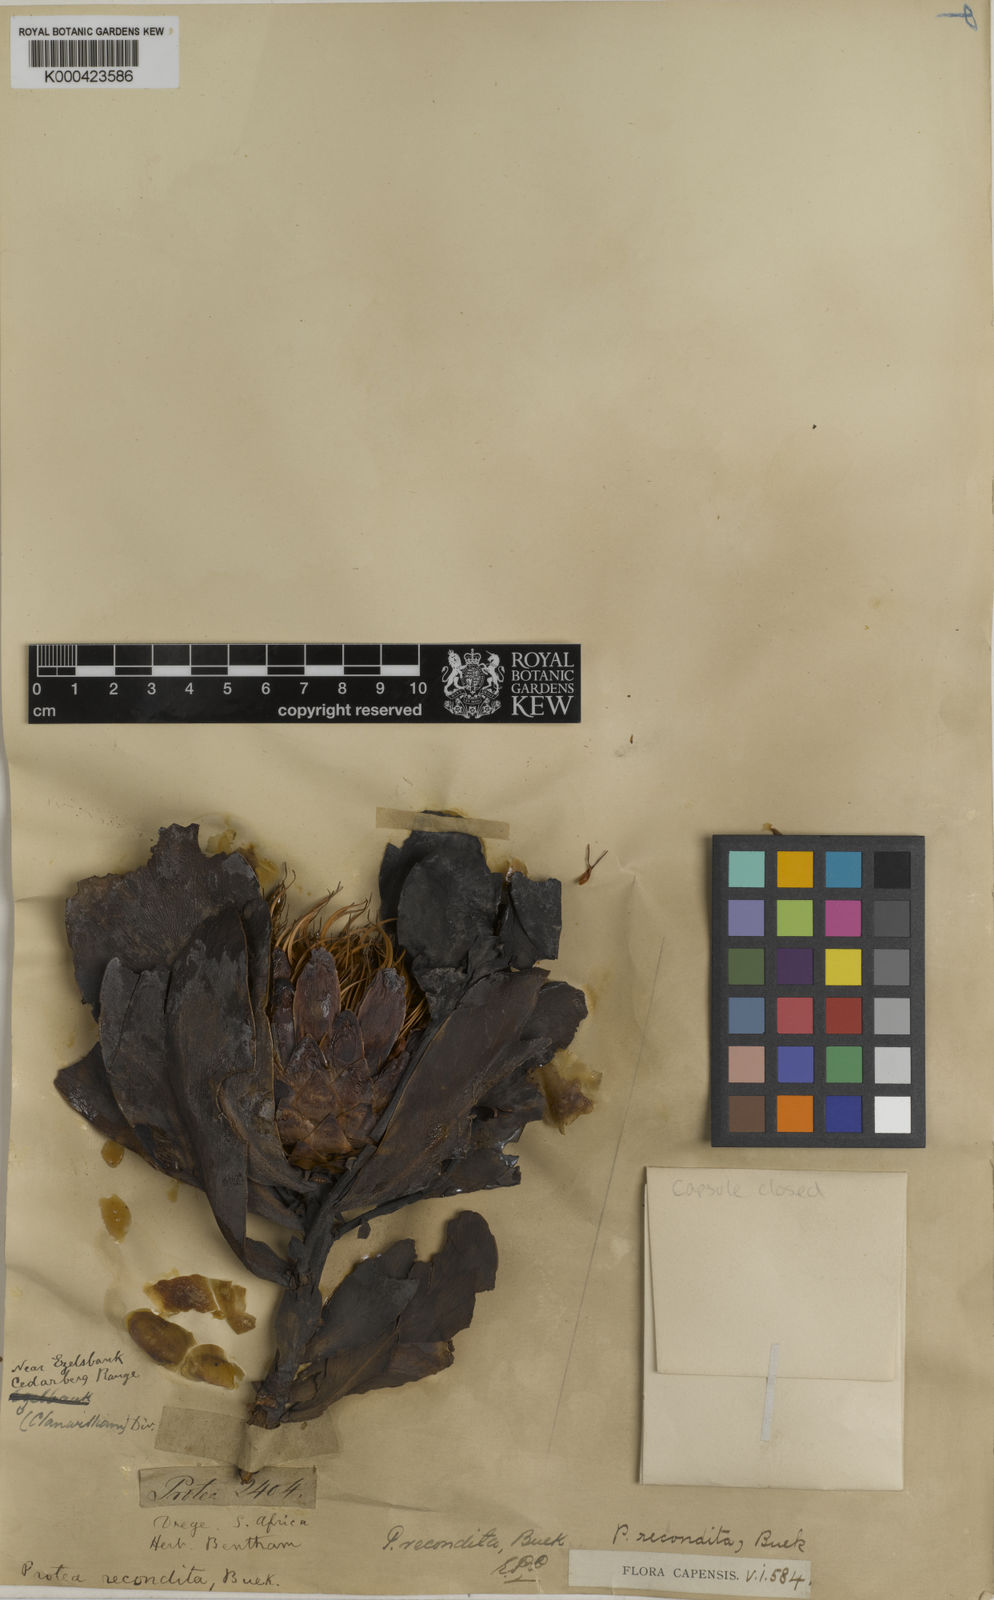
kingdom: Plantae
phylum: Tracheophyta
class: Magnoliopsida
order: Proteales
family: Proteaceae
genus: Protea
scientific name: Protea recondita
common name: Hidden sugarbush
